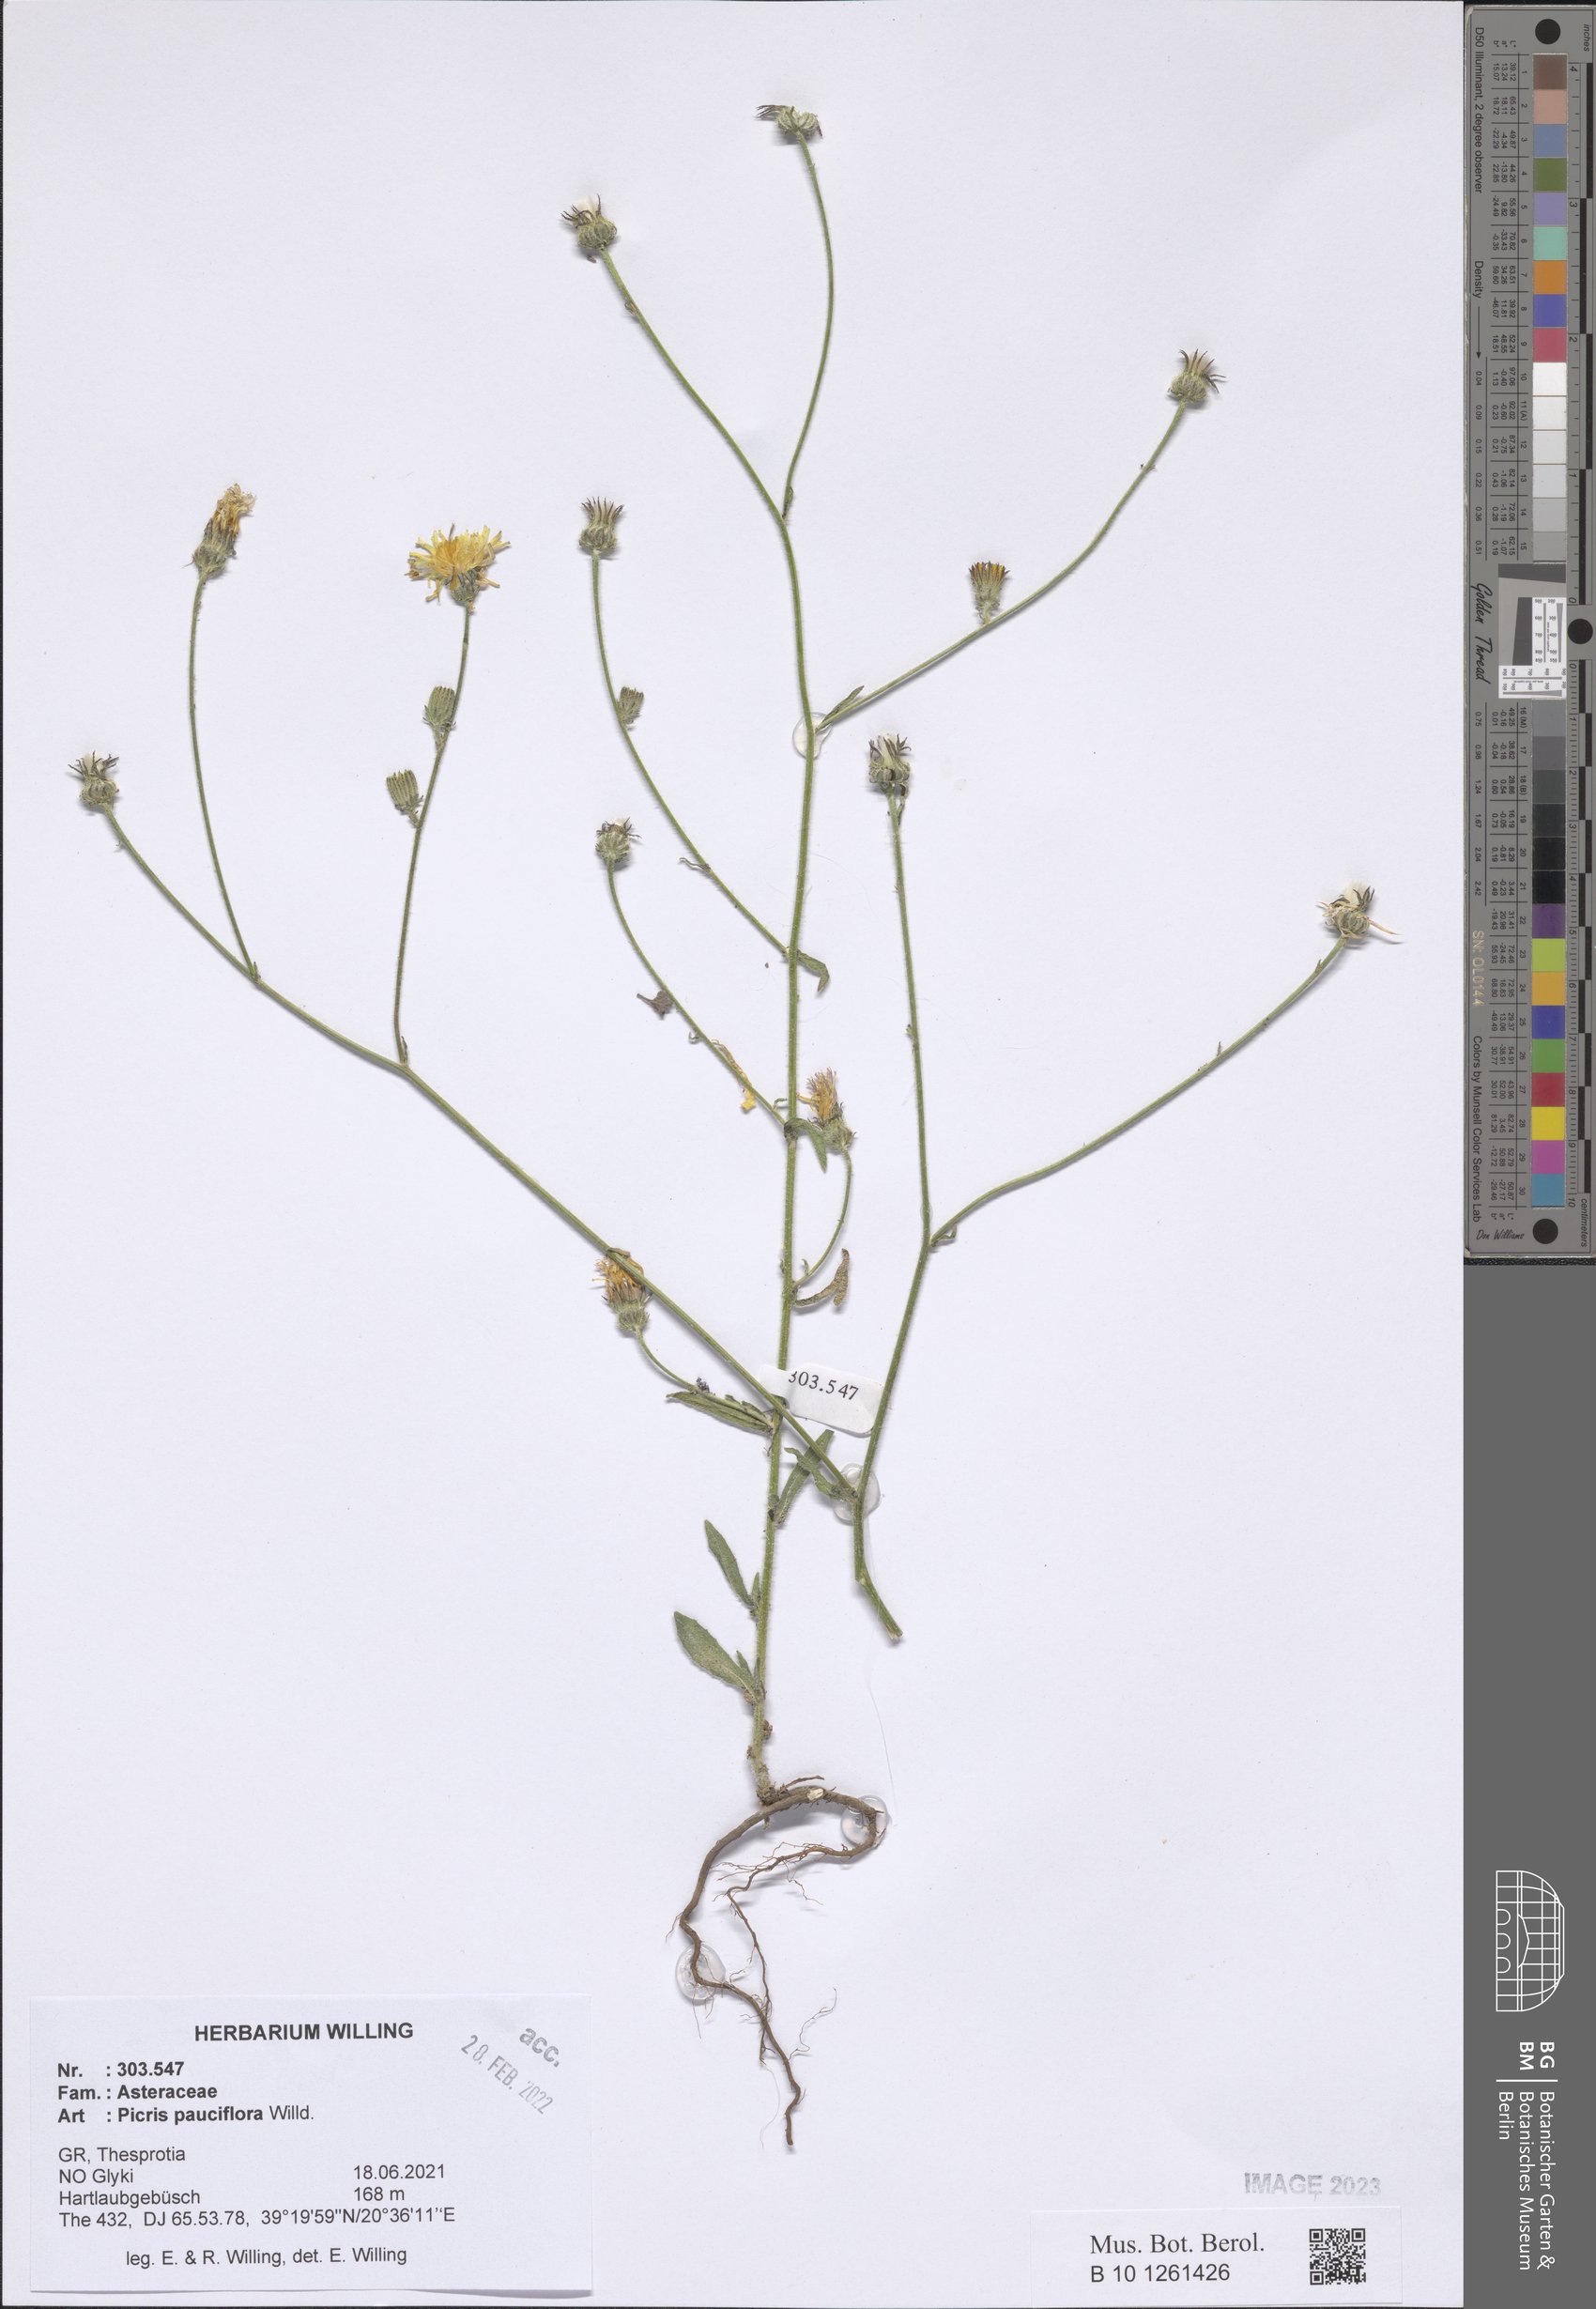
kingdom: Plantae
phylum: Tracheophyta
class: Magnoliopsida
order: Asterales
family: Asteraceae
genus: Picris
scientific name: Picris pauciflora
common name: Smallflower oxtongue
